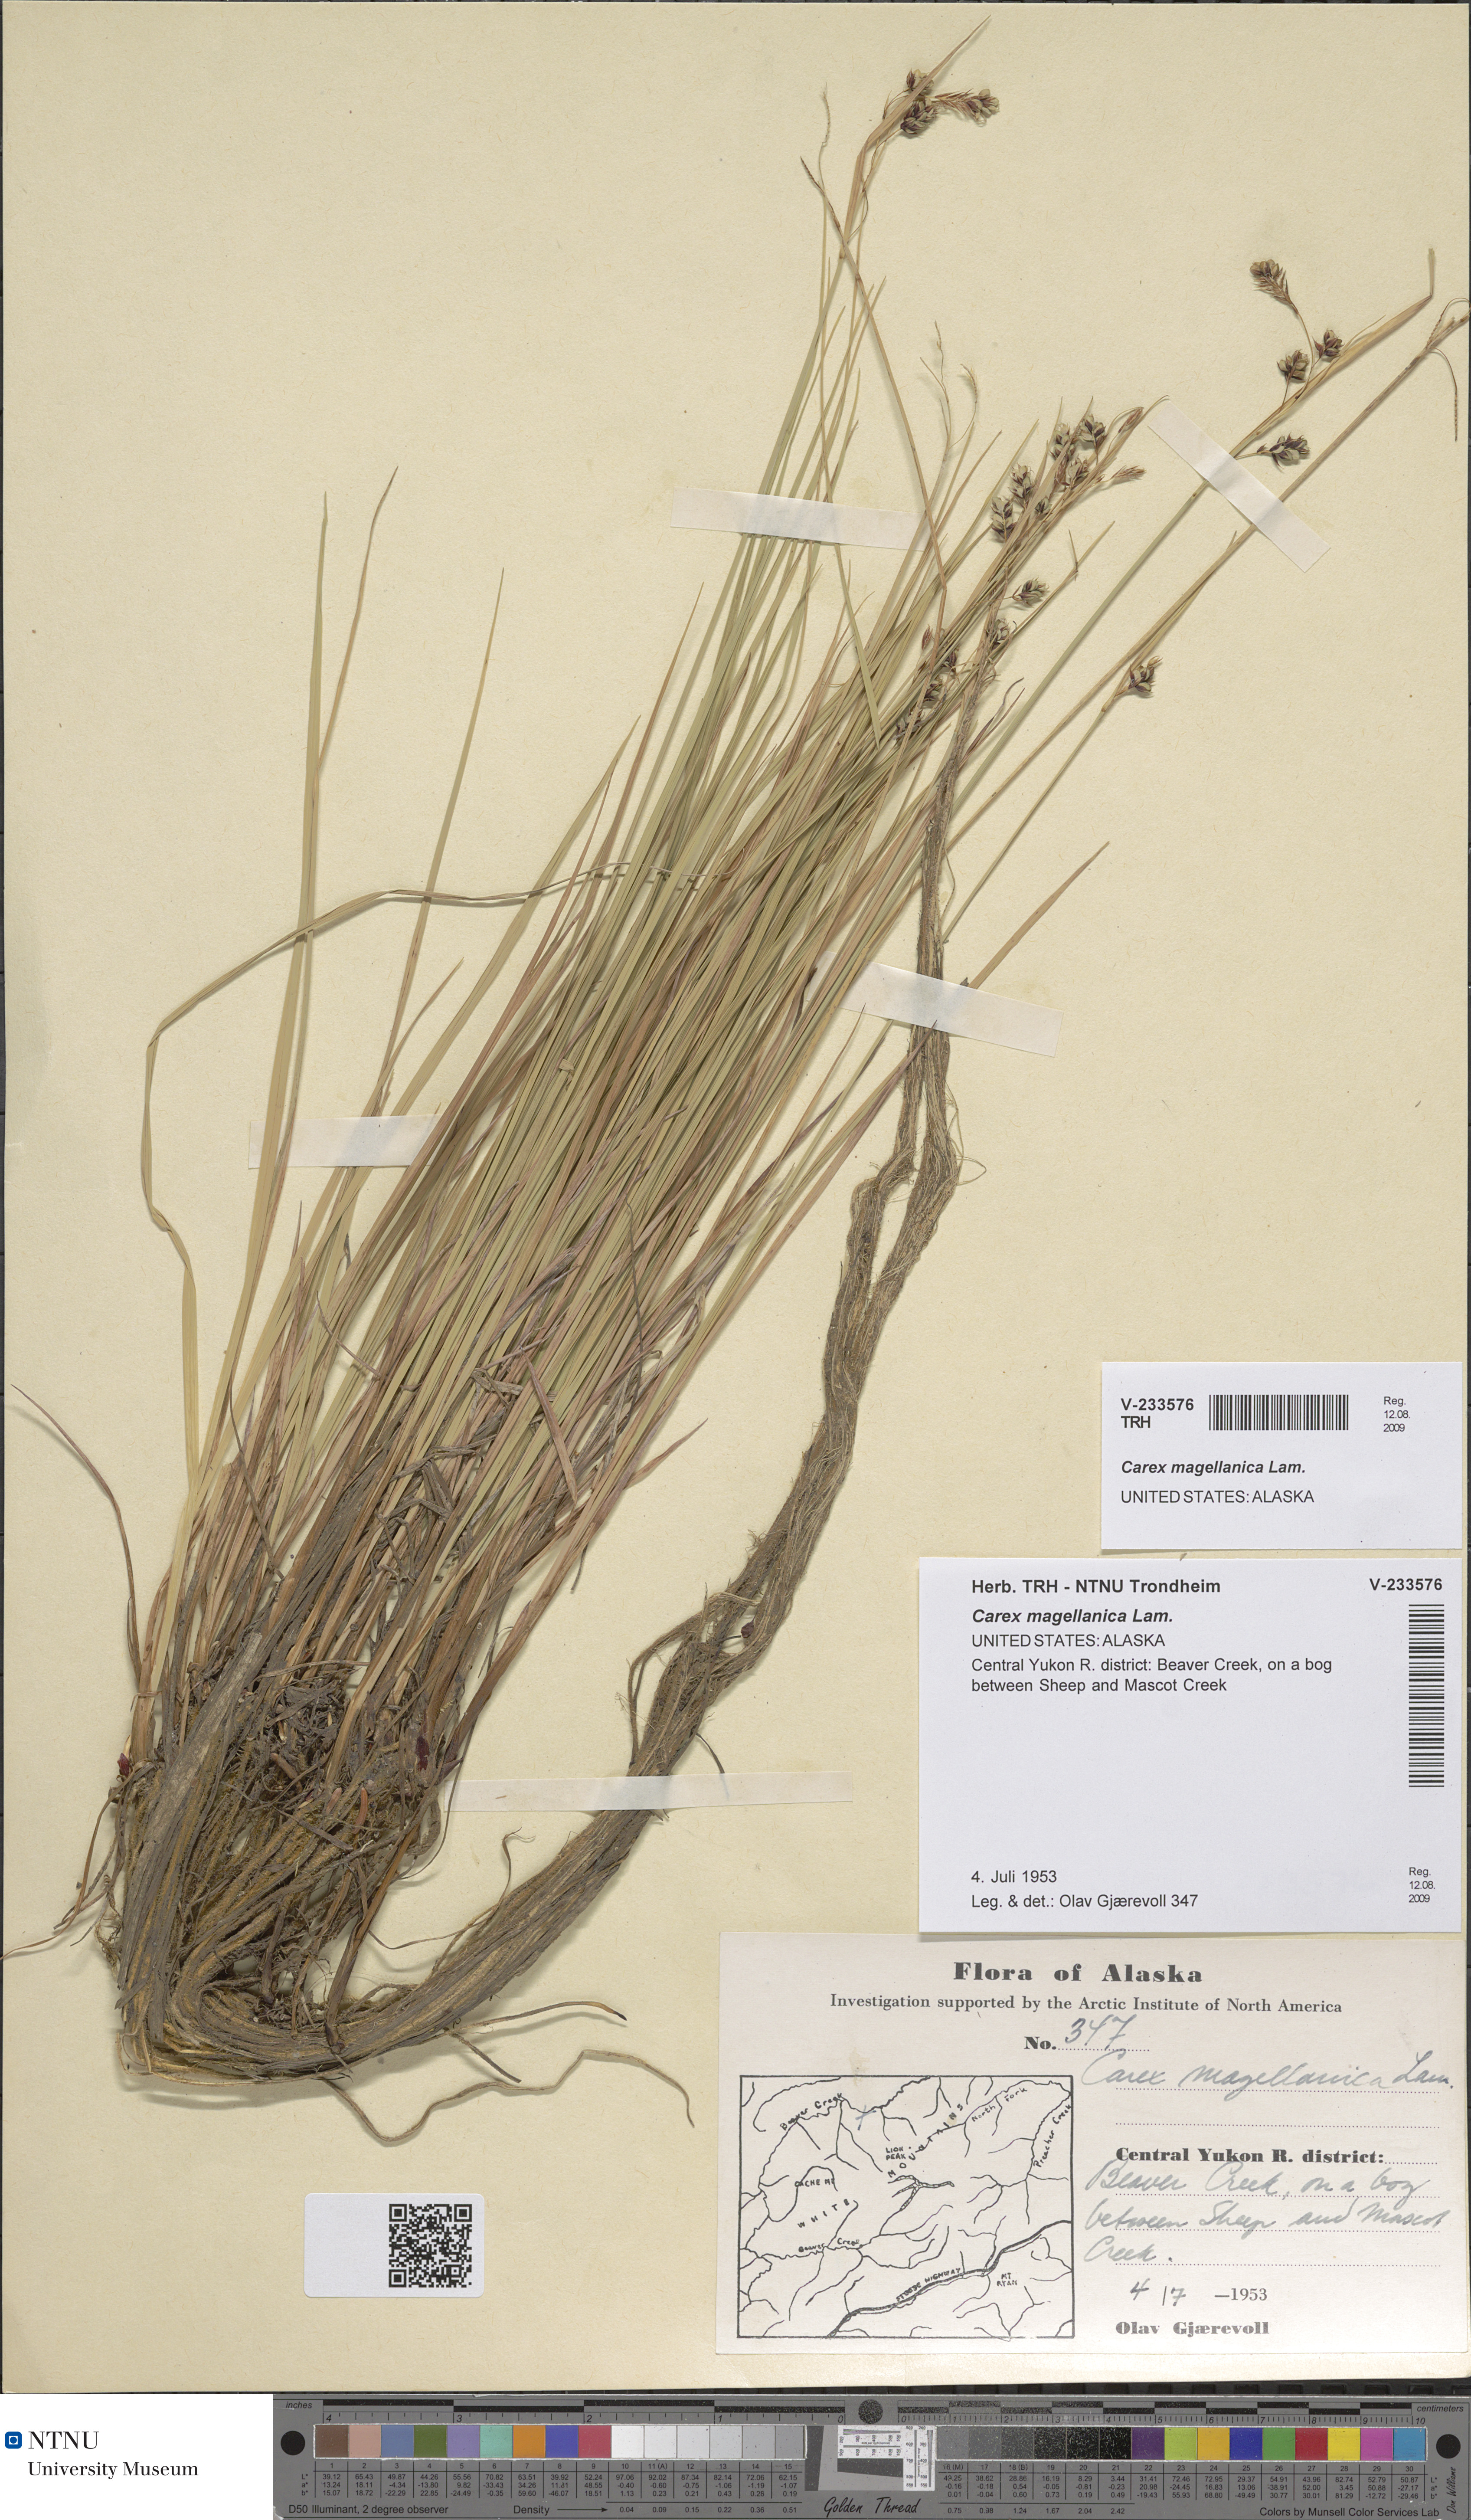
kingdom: Plantae
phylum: Tracheophyta
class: Liliopsida
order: Poales
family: Cyperaceae
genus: Carex
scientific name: Carex magellanica
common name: Bog sedge
